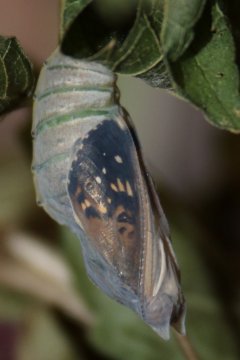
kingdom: Animalia
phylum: Arthropoda
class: Insecta
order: Lepidoptera
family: Nymphalidae
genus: Asterocampa
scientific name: Asterocampa celtis
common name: Hackberry Emperor
